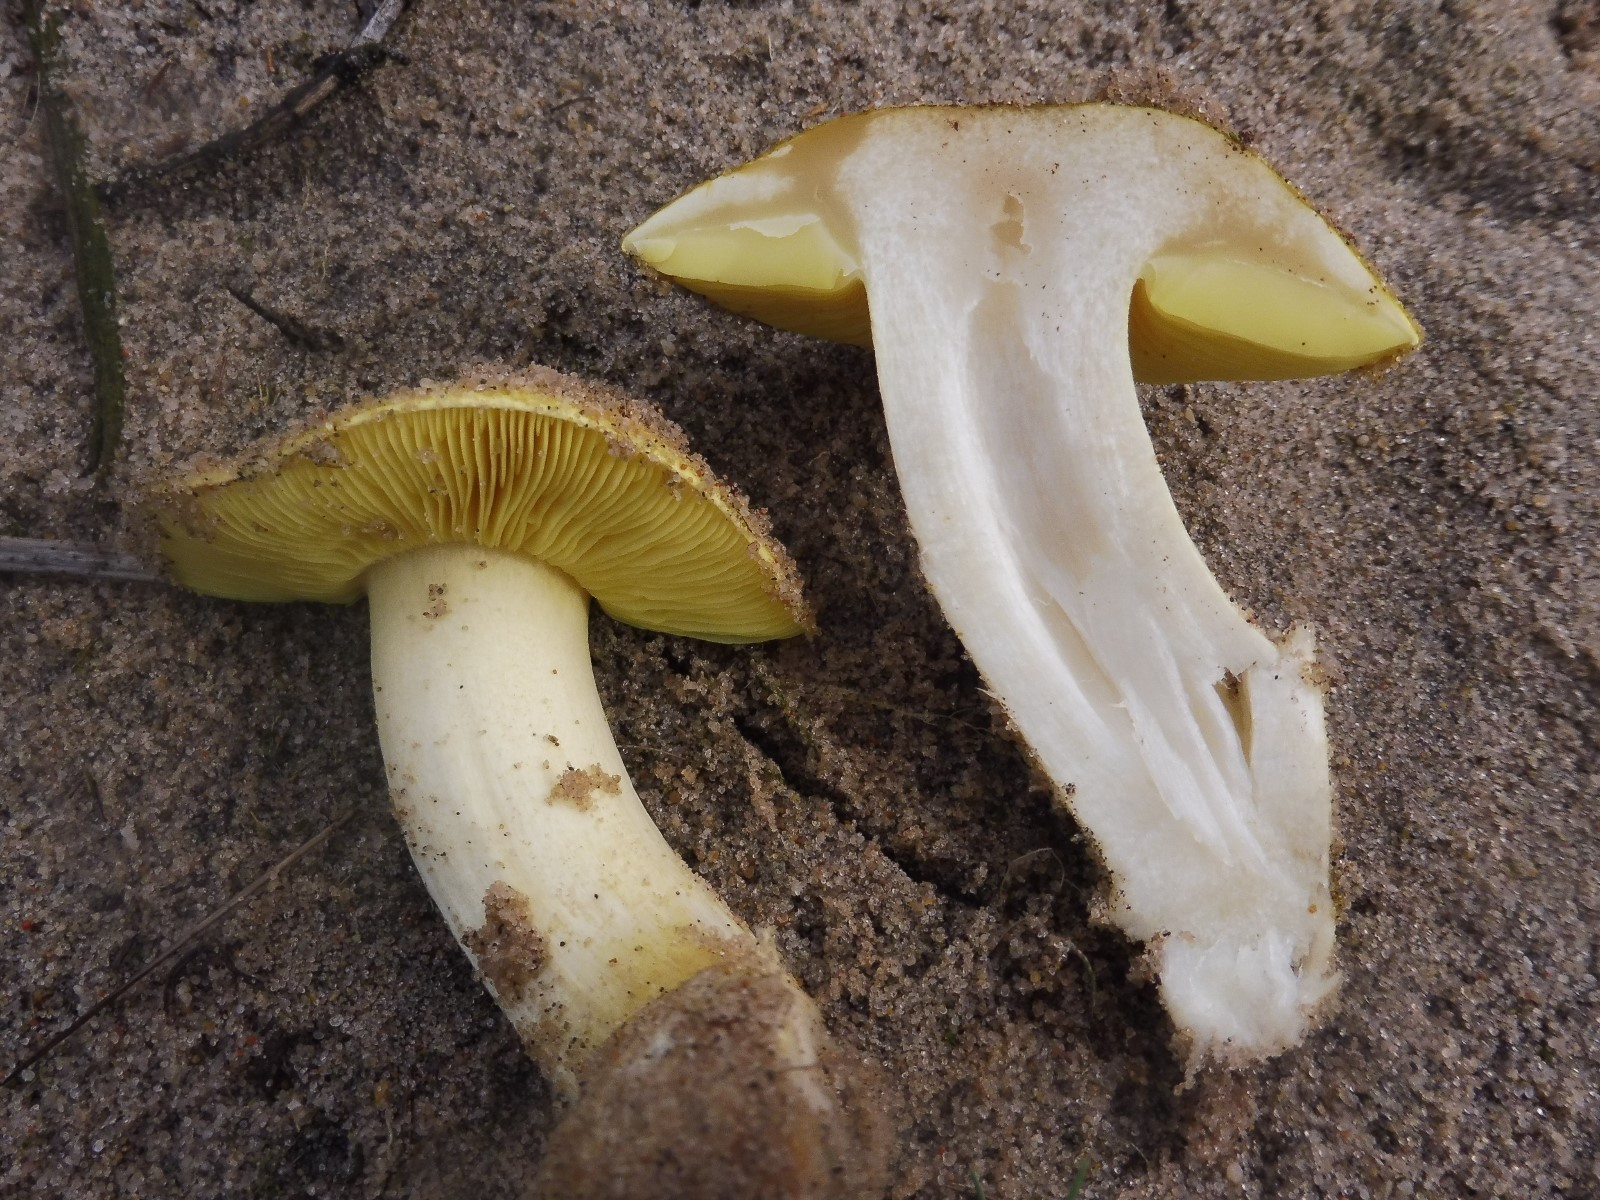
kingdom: Fungi
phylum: Basidiomycota
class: Agaricomycetes
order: Agaricales
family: Tricholomataceae
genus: Tricholoma
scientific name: Tricholoma equestre
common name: ægte ridderhat
